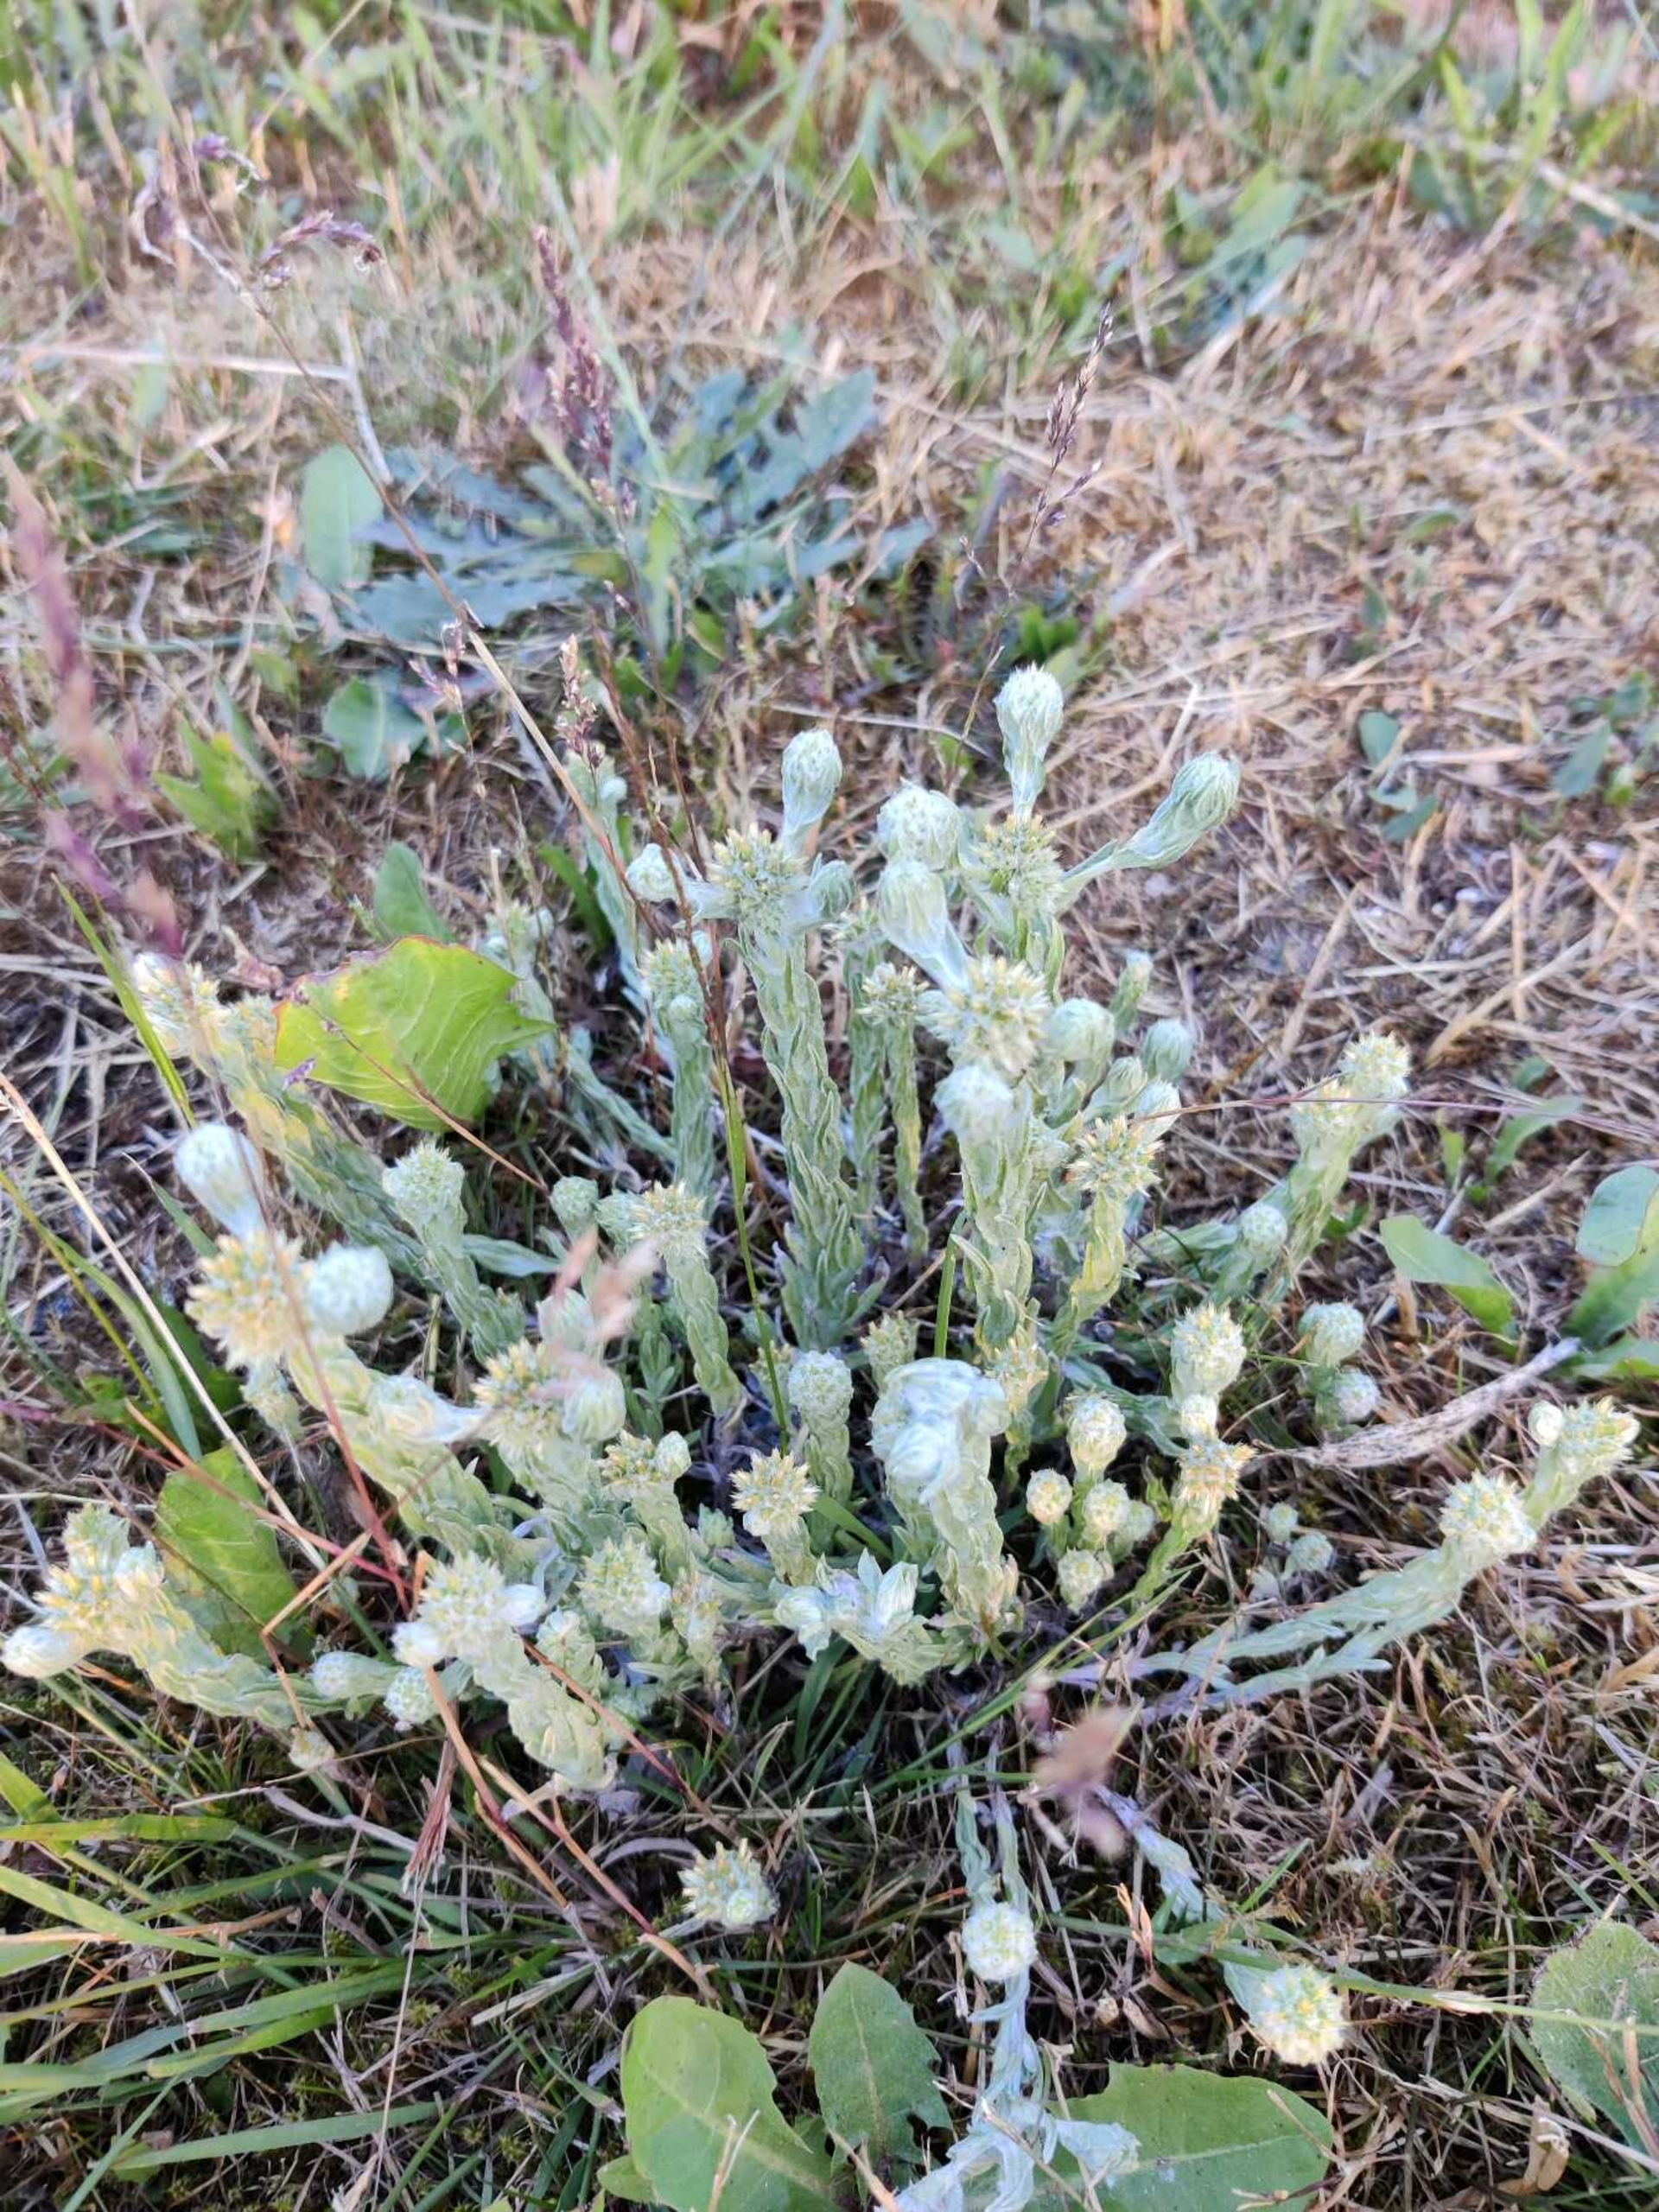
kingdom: Plantae
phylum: Tracheophyta
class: Magnoliopsida
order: Asterales
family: Asteraceae
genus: Filago
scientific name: Filago germanica
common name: Kugle-museurt
